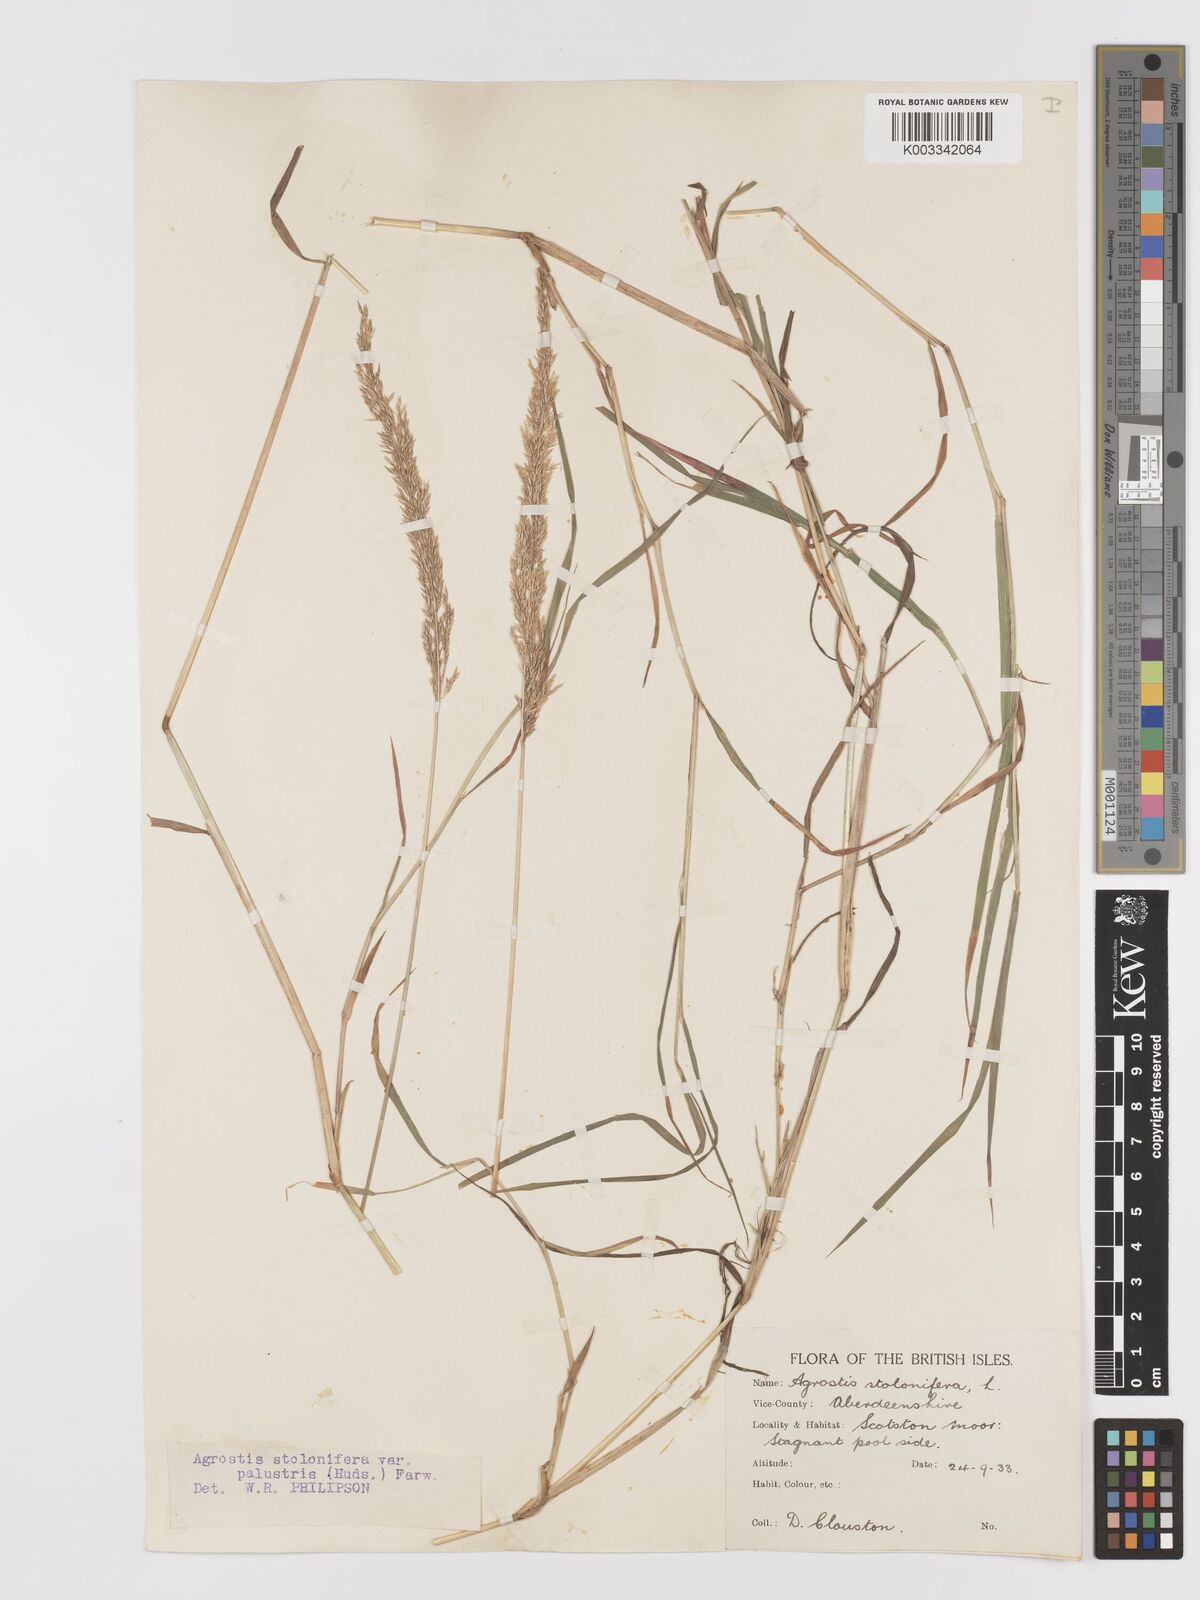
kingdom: Plantae
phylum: Tracheophyta
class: Liliopsida
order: Poales
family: Poaceae
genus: Agrostis
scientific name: Agrostis stolonifera
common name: Creeping bentgrass
